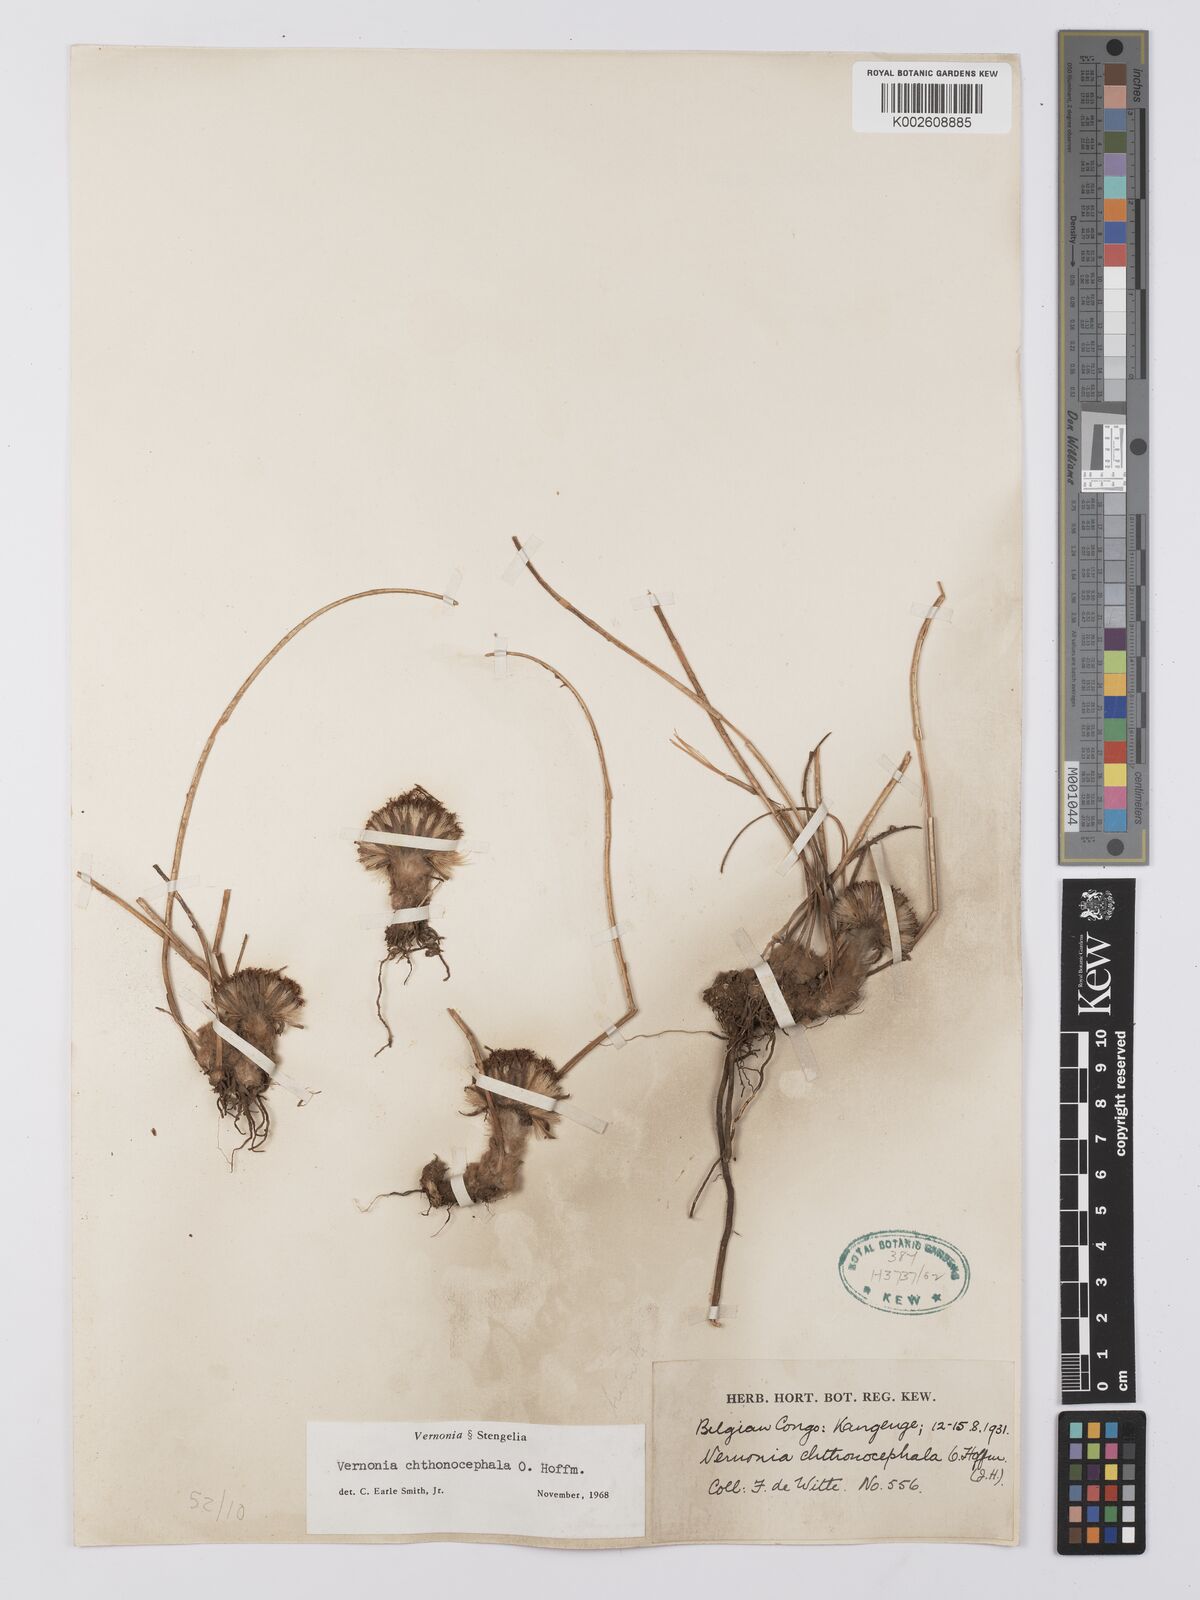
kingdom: Plantae
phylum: Tracheophyta
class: Magnoliopsida
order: Asterales
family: Asteraceae
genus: Vernonella
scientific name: Vernonella chthonocephala
